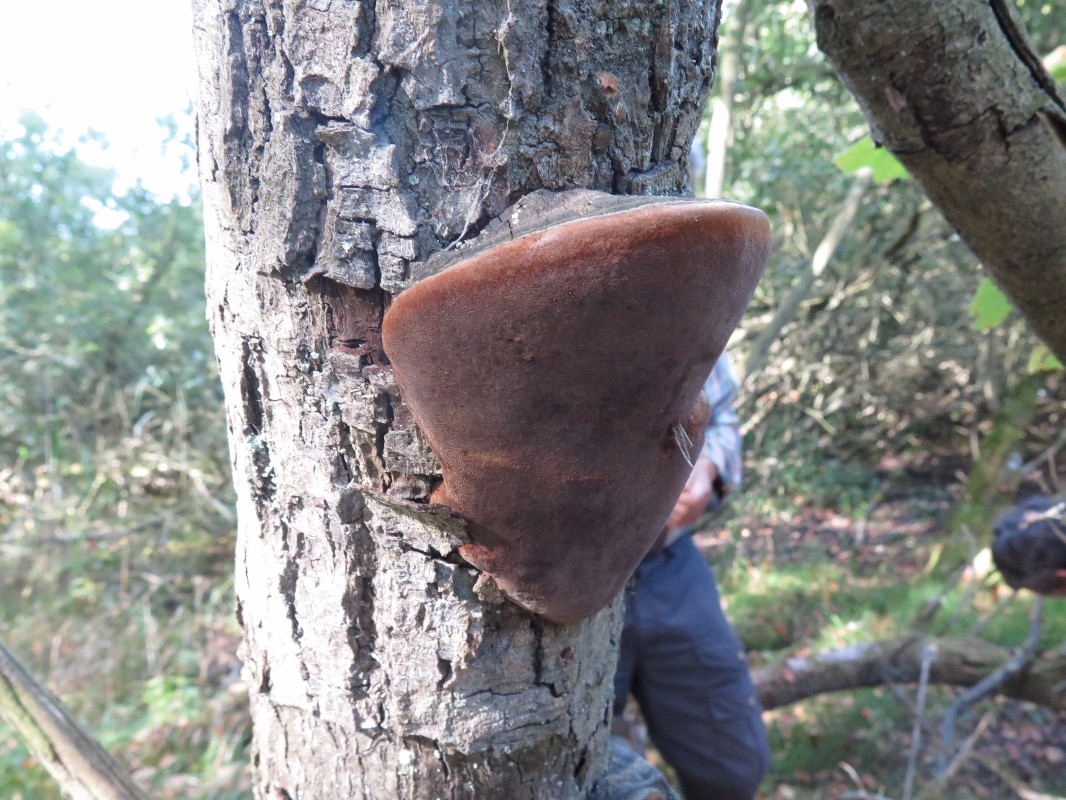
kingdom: Fungi
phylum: Basidiomycota
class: Agaricomycetes
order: Hymenochaetales
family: Hymenochaetaceae
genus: Phellinus
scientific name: Phellinus igniarius
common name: almindelig ildporesvamp
